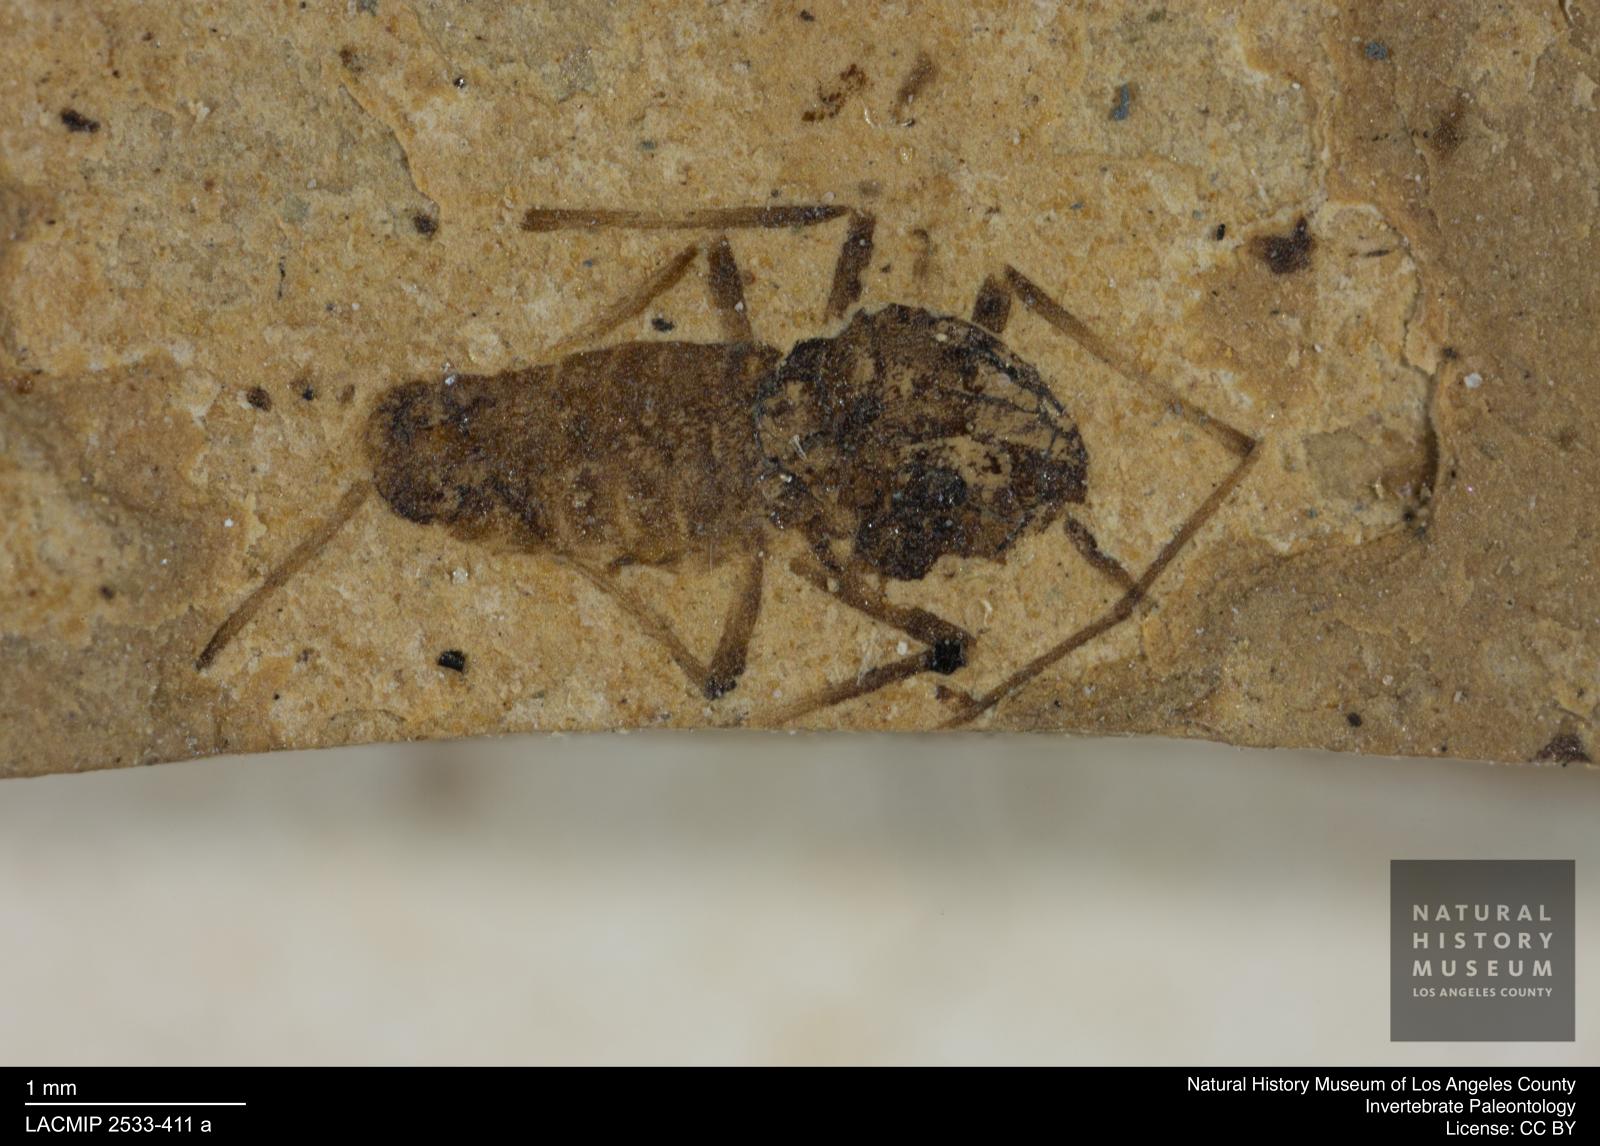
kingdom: Animalia
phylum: Arthropoda
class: Insecta
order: Diptera
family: Chironomidae
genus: Tanypus
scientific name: Tanypus fuscus
